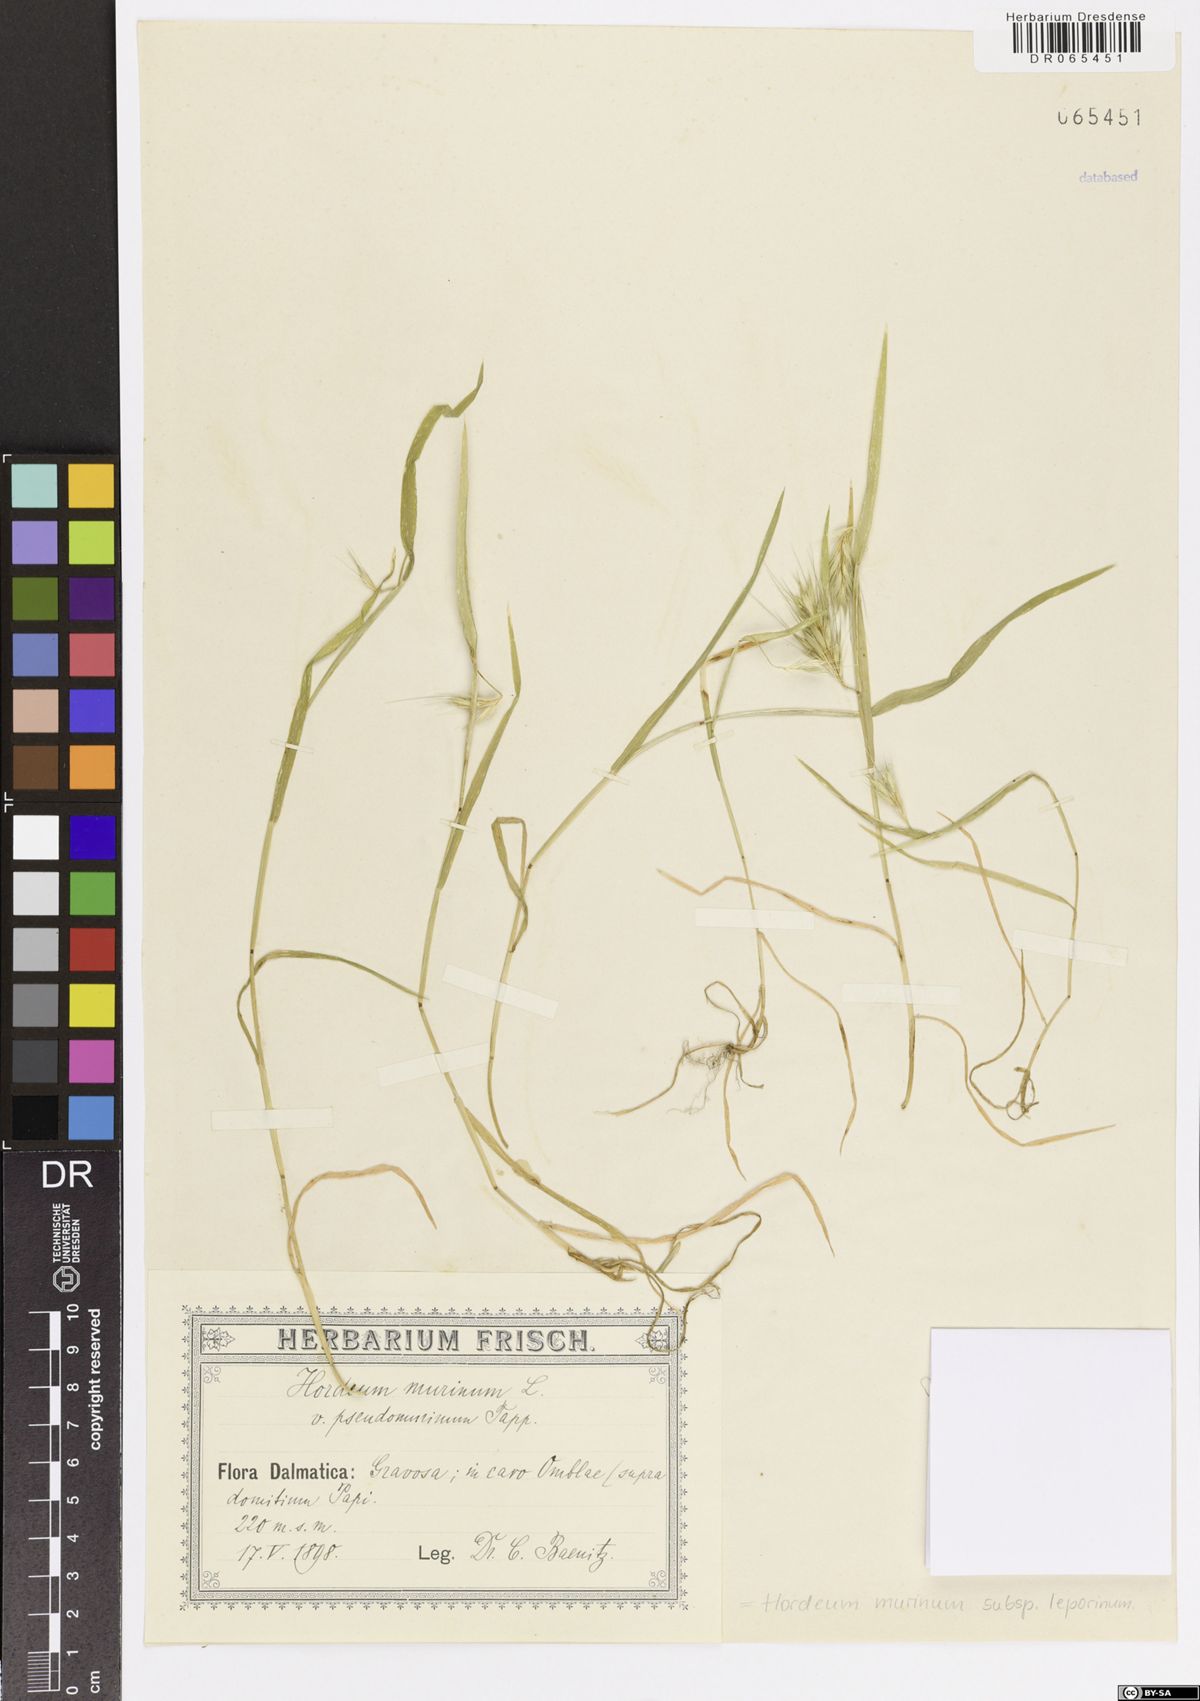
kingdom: Plantae
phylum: Tracheophyta
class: Liliopsida
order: Poales
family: Poaceae
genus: Hordeum
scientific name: Hordeum murinum
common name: Wall barley
